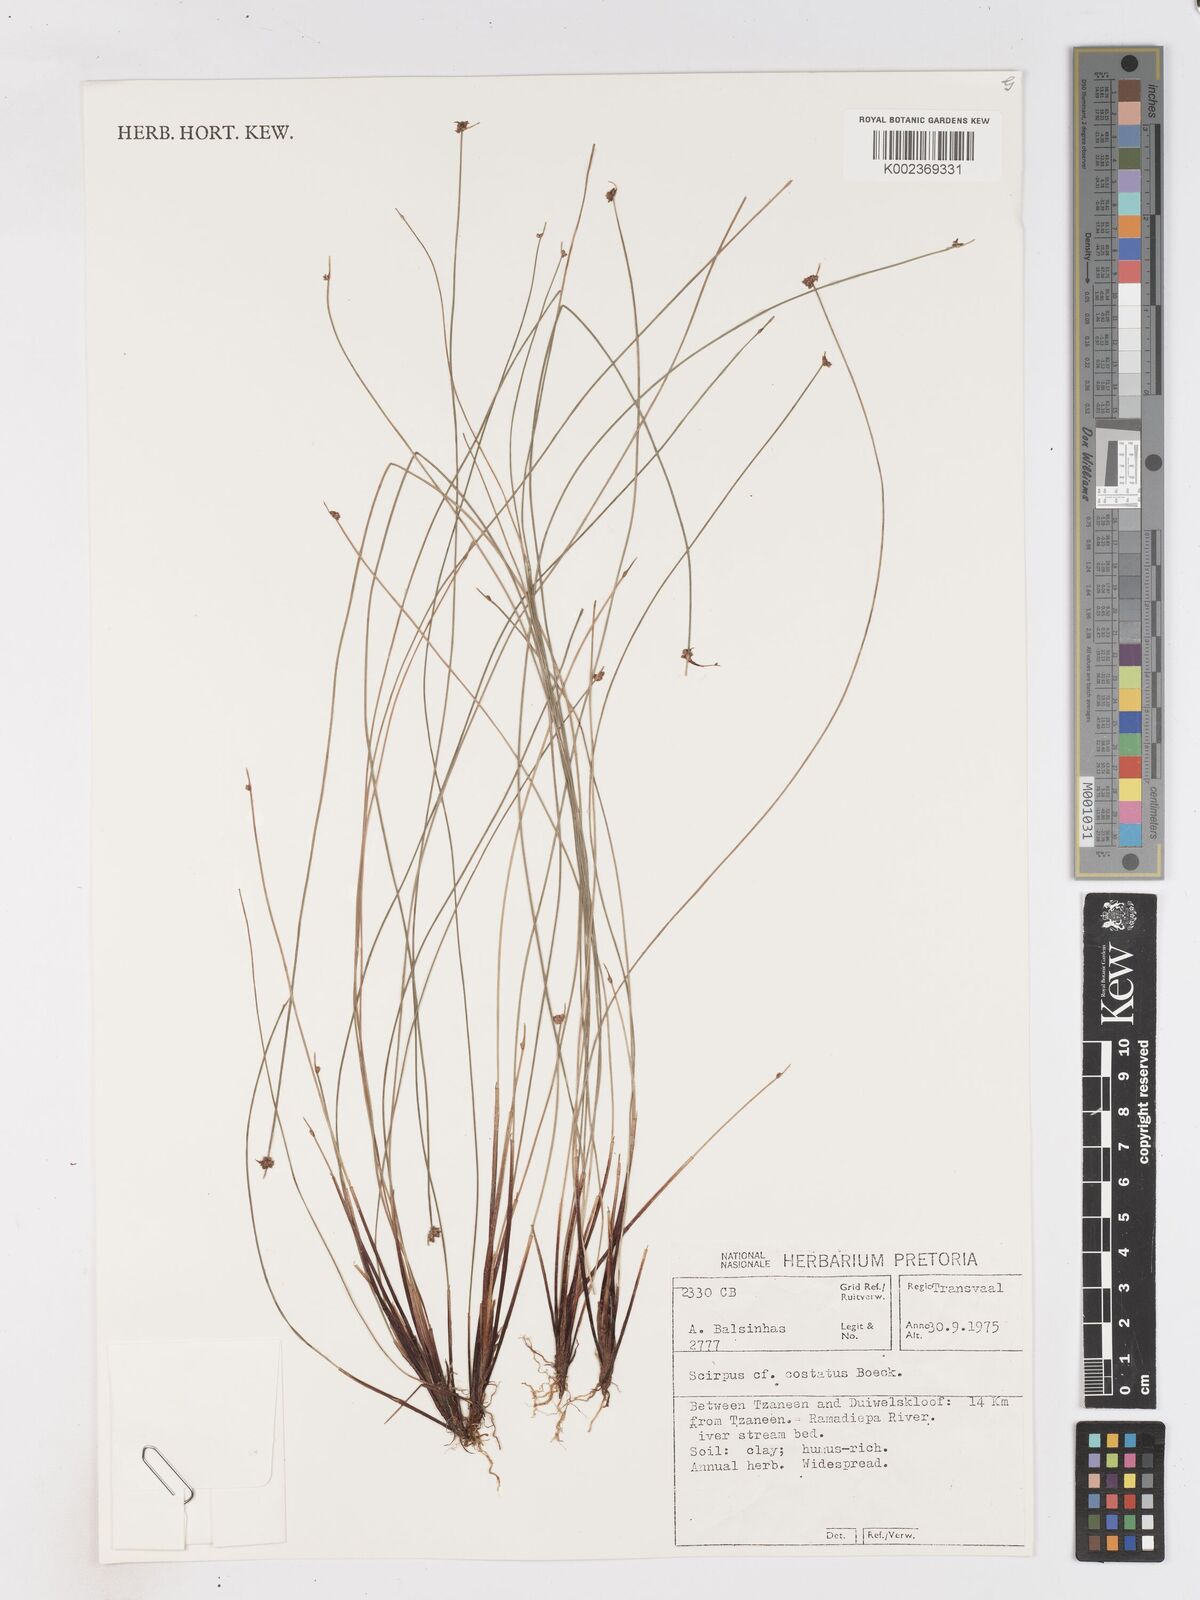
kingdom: Plantae
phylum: Tracheophyta
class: Liliopsida
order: Poales
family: Cyperaceae
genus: Isolepis
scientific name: Isolepis costata
